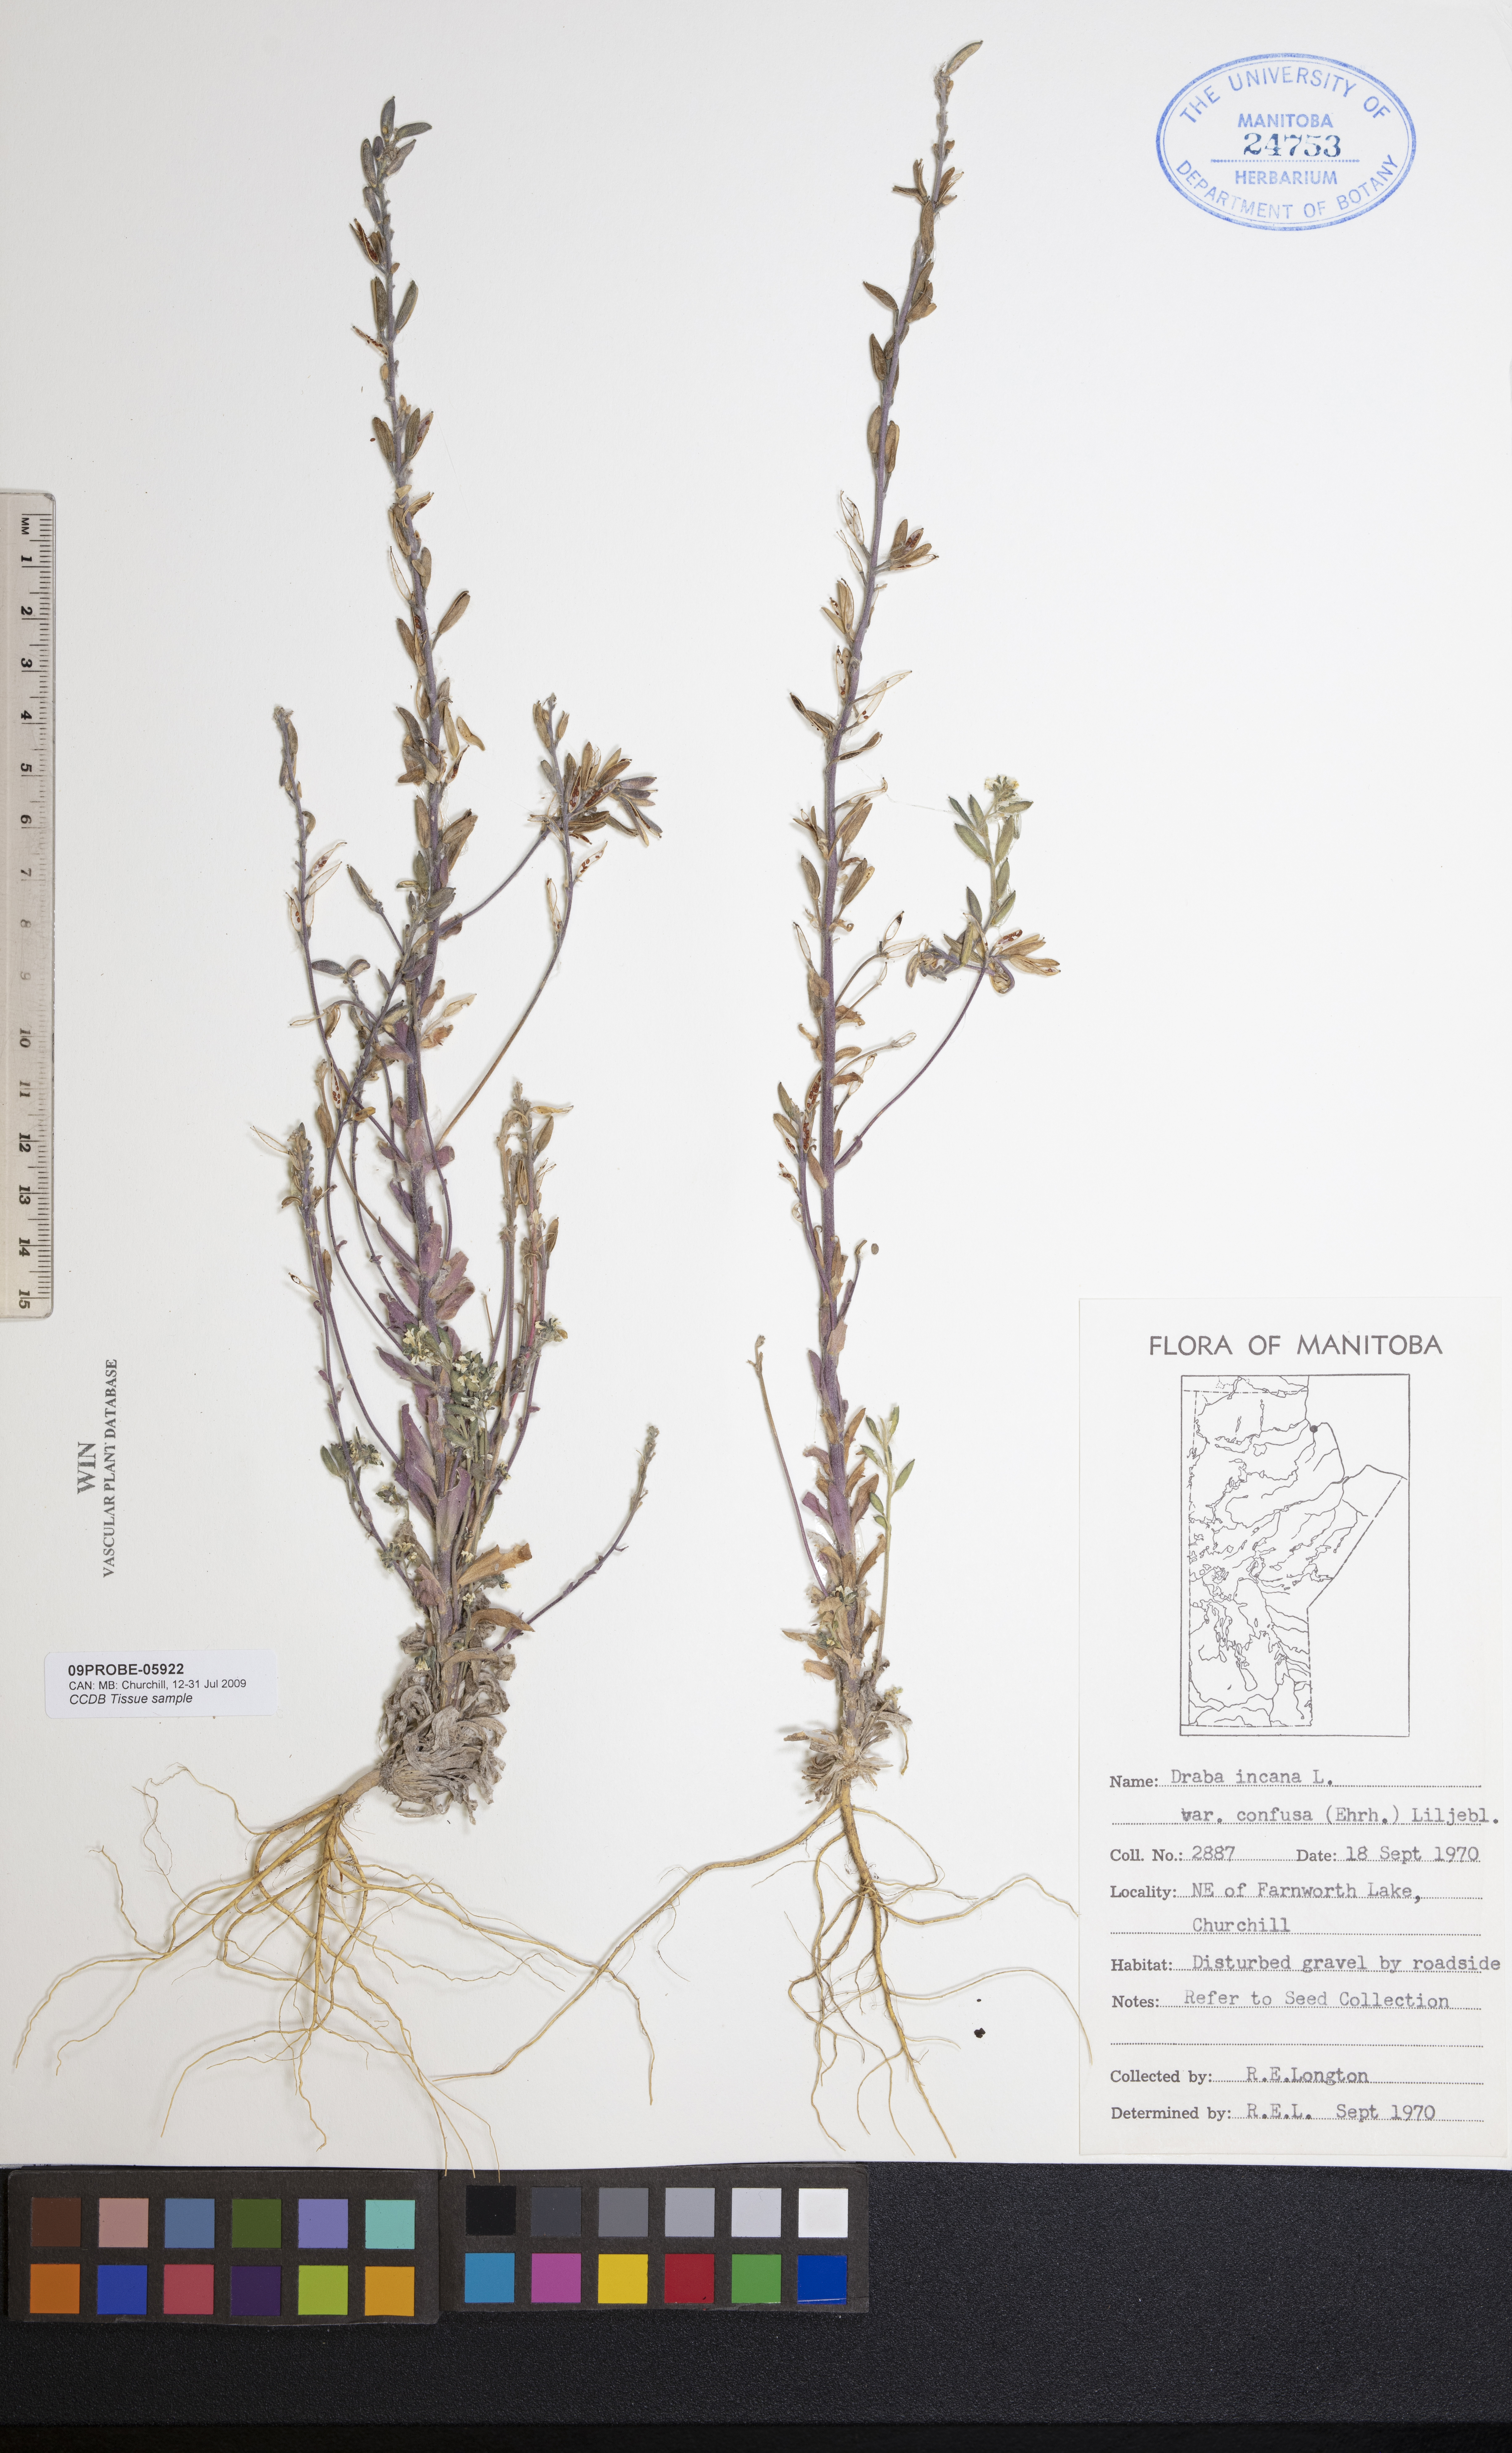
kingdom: Plantae
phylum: Tracheophyta
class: Magnoliopsida
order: Brassicales
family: Brassicaceae
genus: Draba
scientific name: Draba incana
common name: Hoary whitlow-grass
